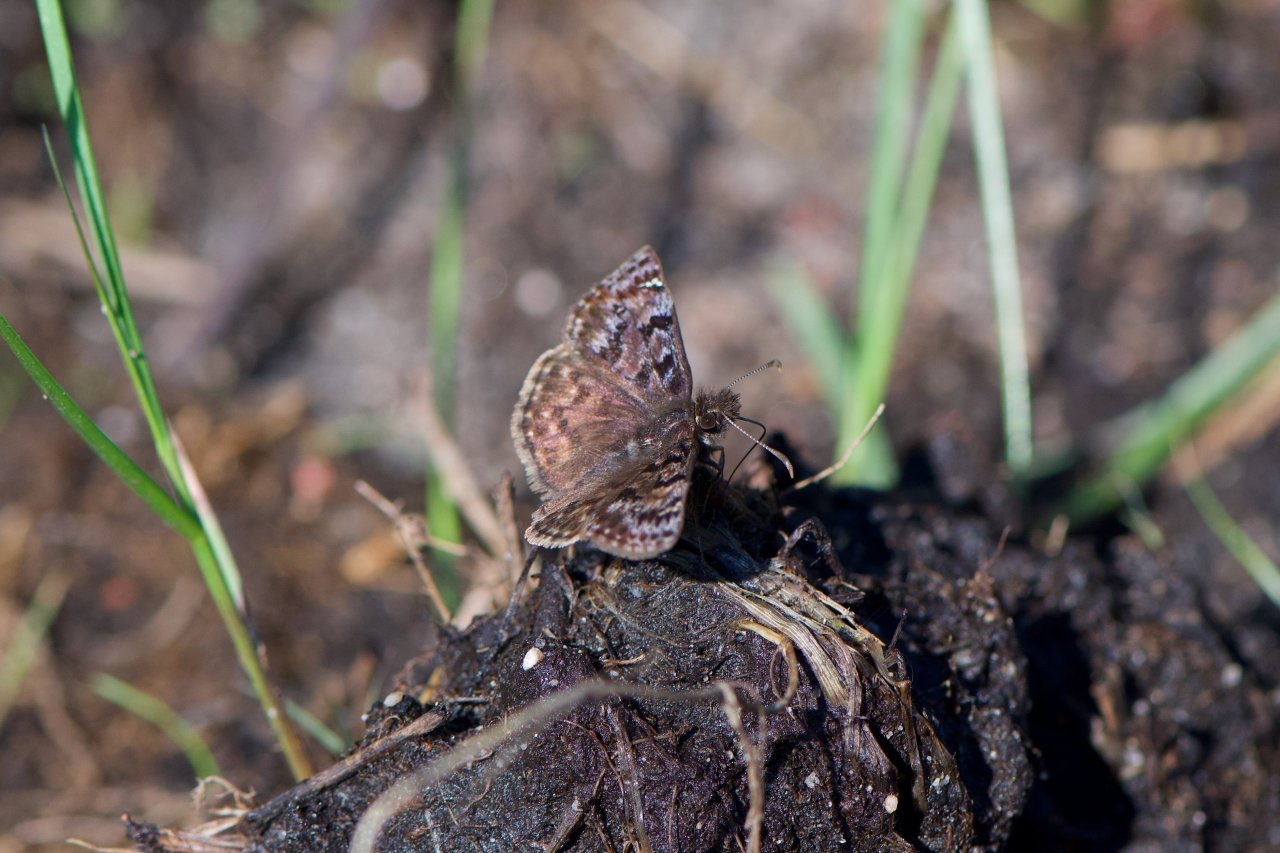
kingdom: Animalia
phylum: Arthropoda
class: Insecta
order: Lepidoptera
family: Hesperiidae
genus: Erynnis
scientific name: Erynnis martialis
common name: Mottled Duskywing
